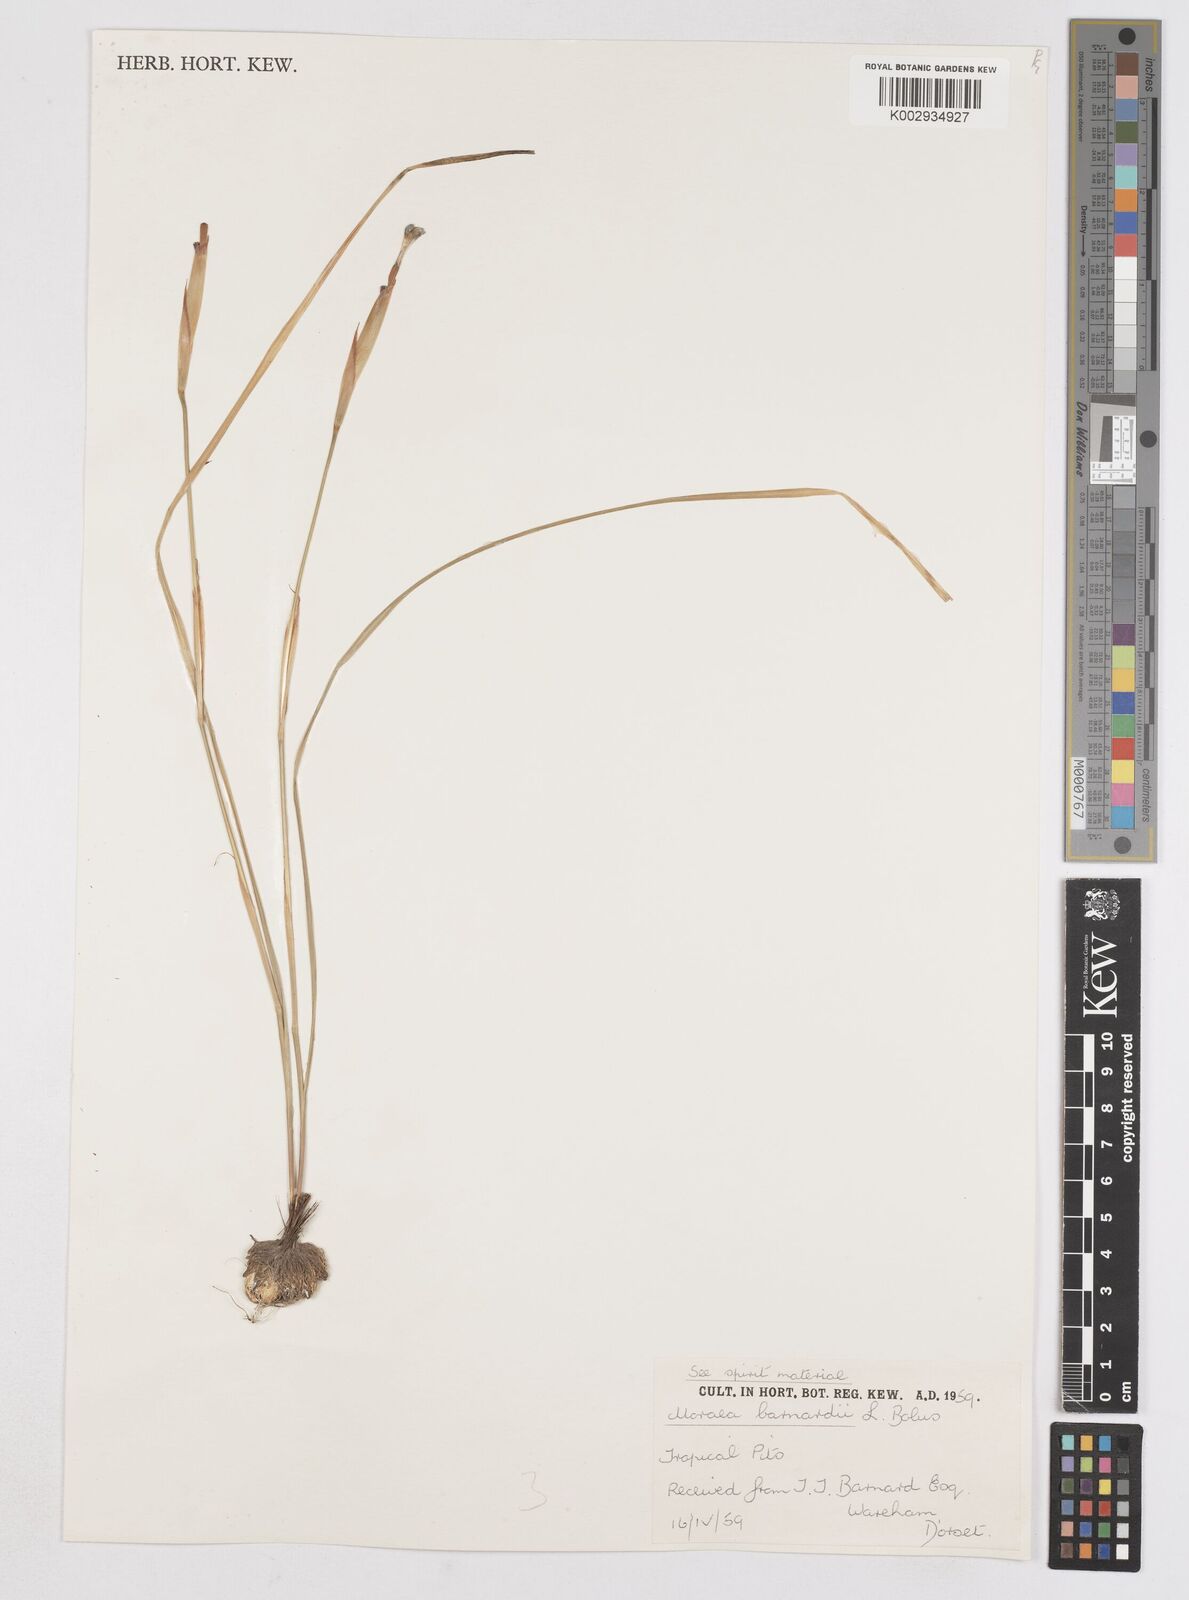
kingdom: Plantae
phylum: Tracheophyta
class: Liliopsida
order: Asparagales
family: Iridaceae
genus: Moraea
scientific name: Moraea barnardii
